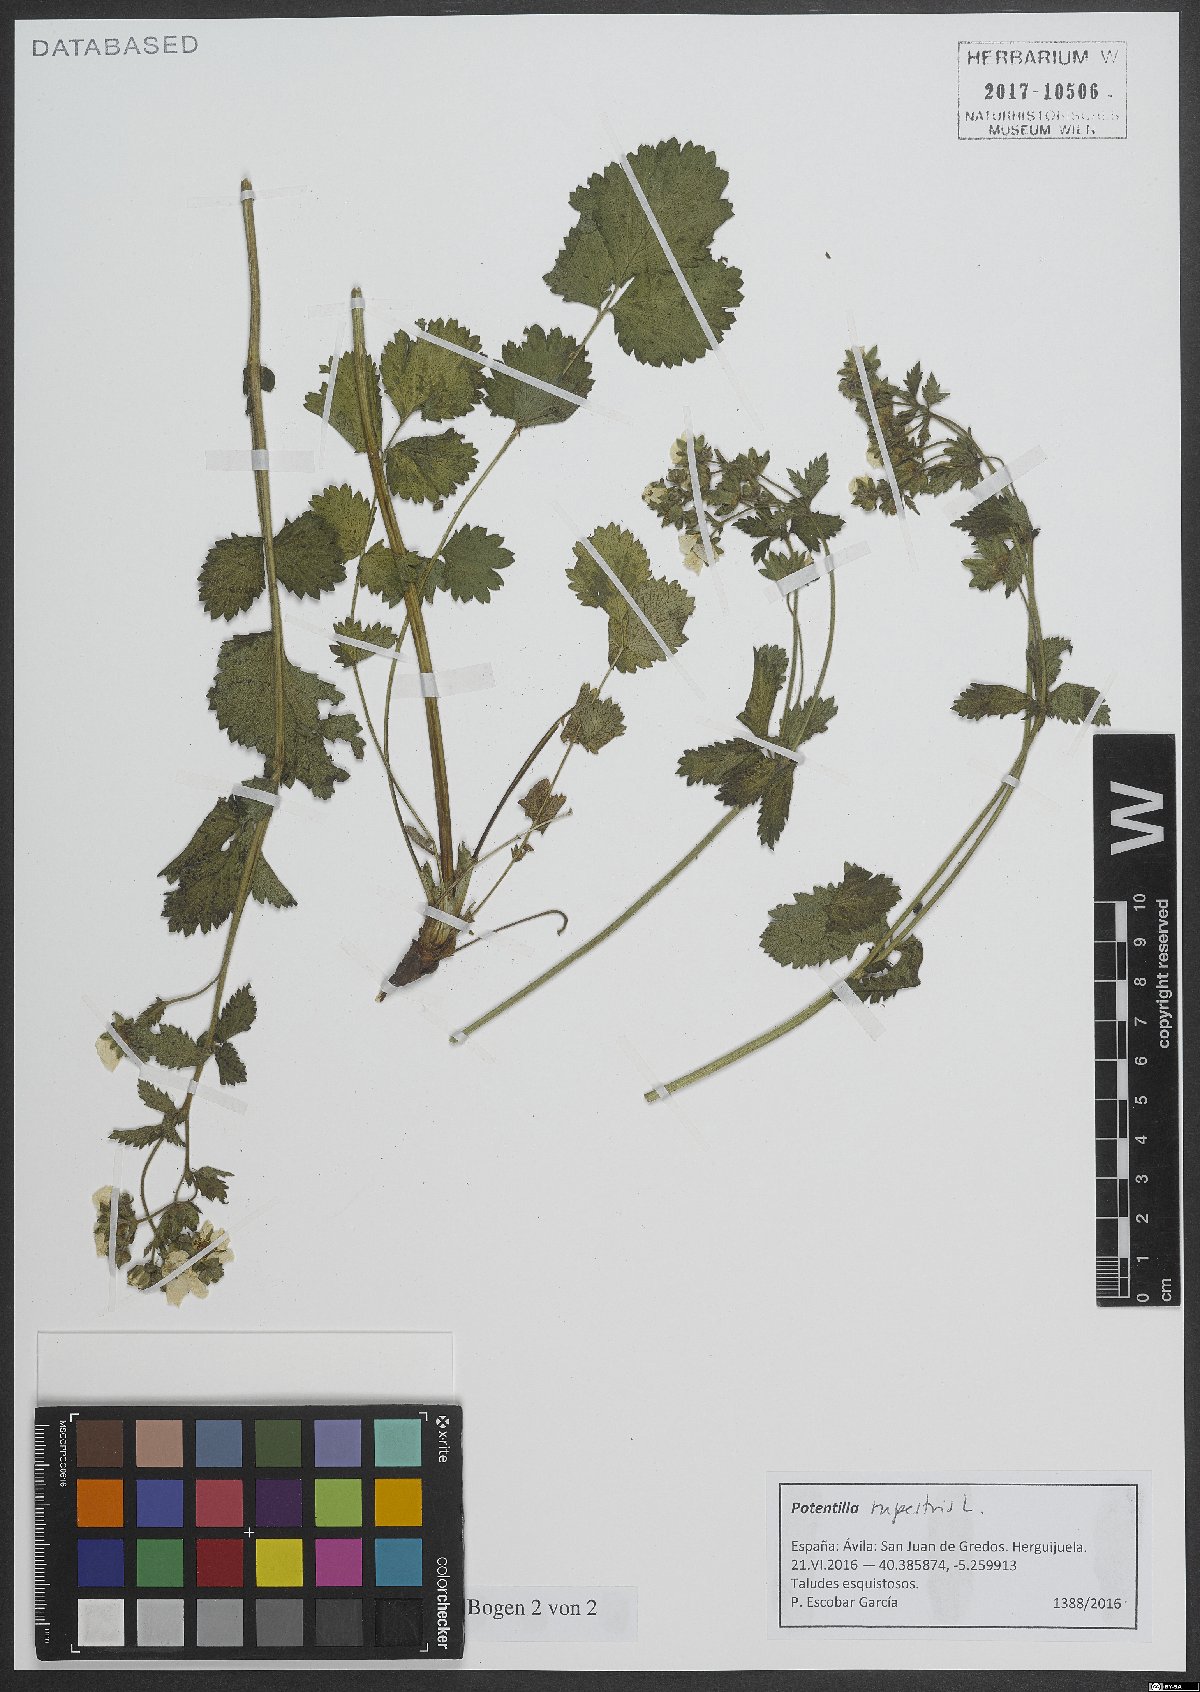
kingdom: Plantae
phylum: Tracheophyta
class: Magnoliopsida
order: Rosales
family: Rosaceae
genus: Drymocallis
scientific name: Drymocallis rupestris
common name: Rock cinquefoil
